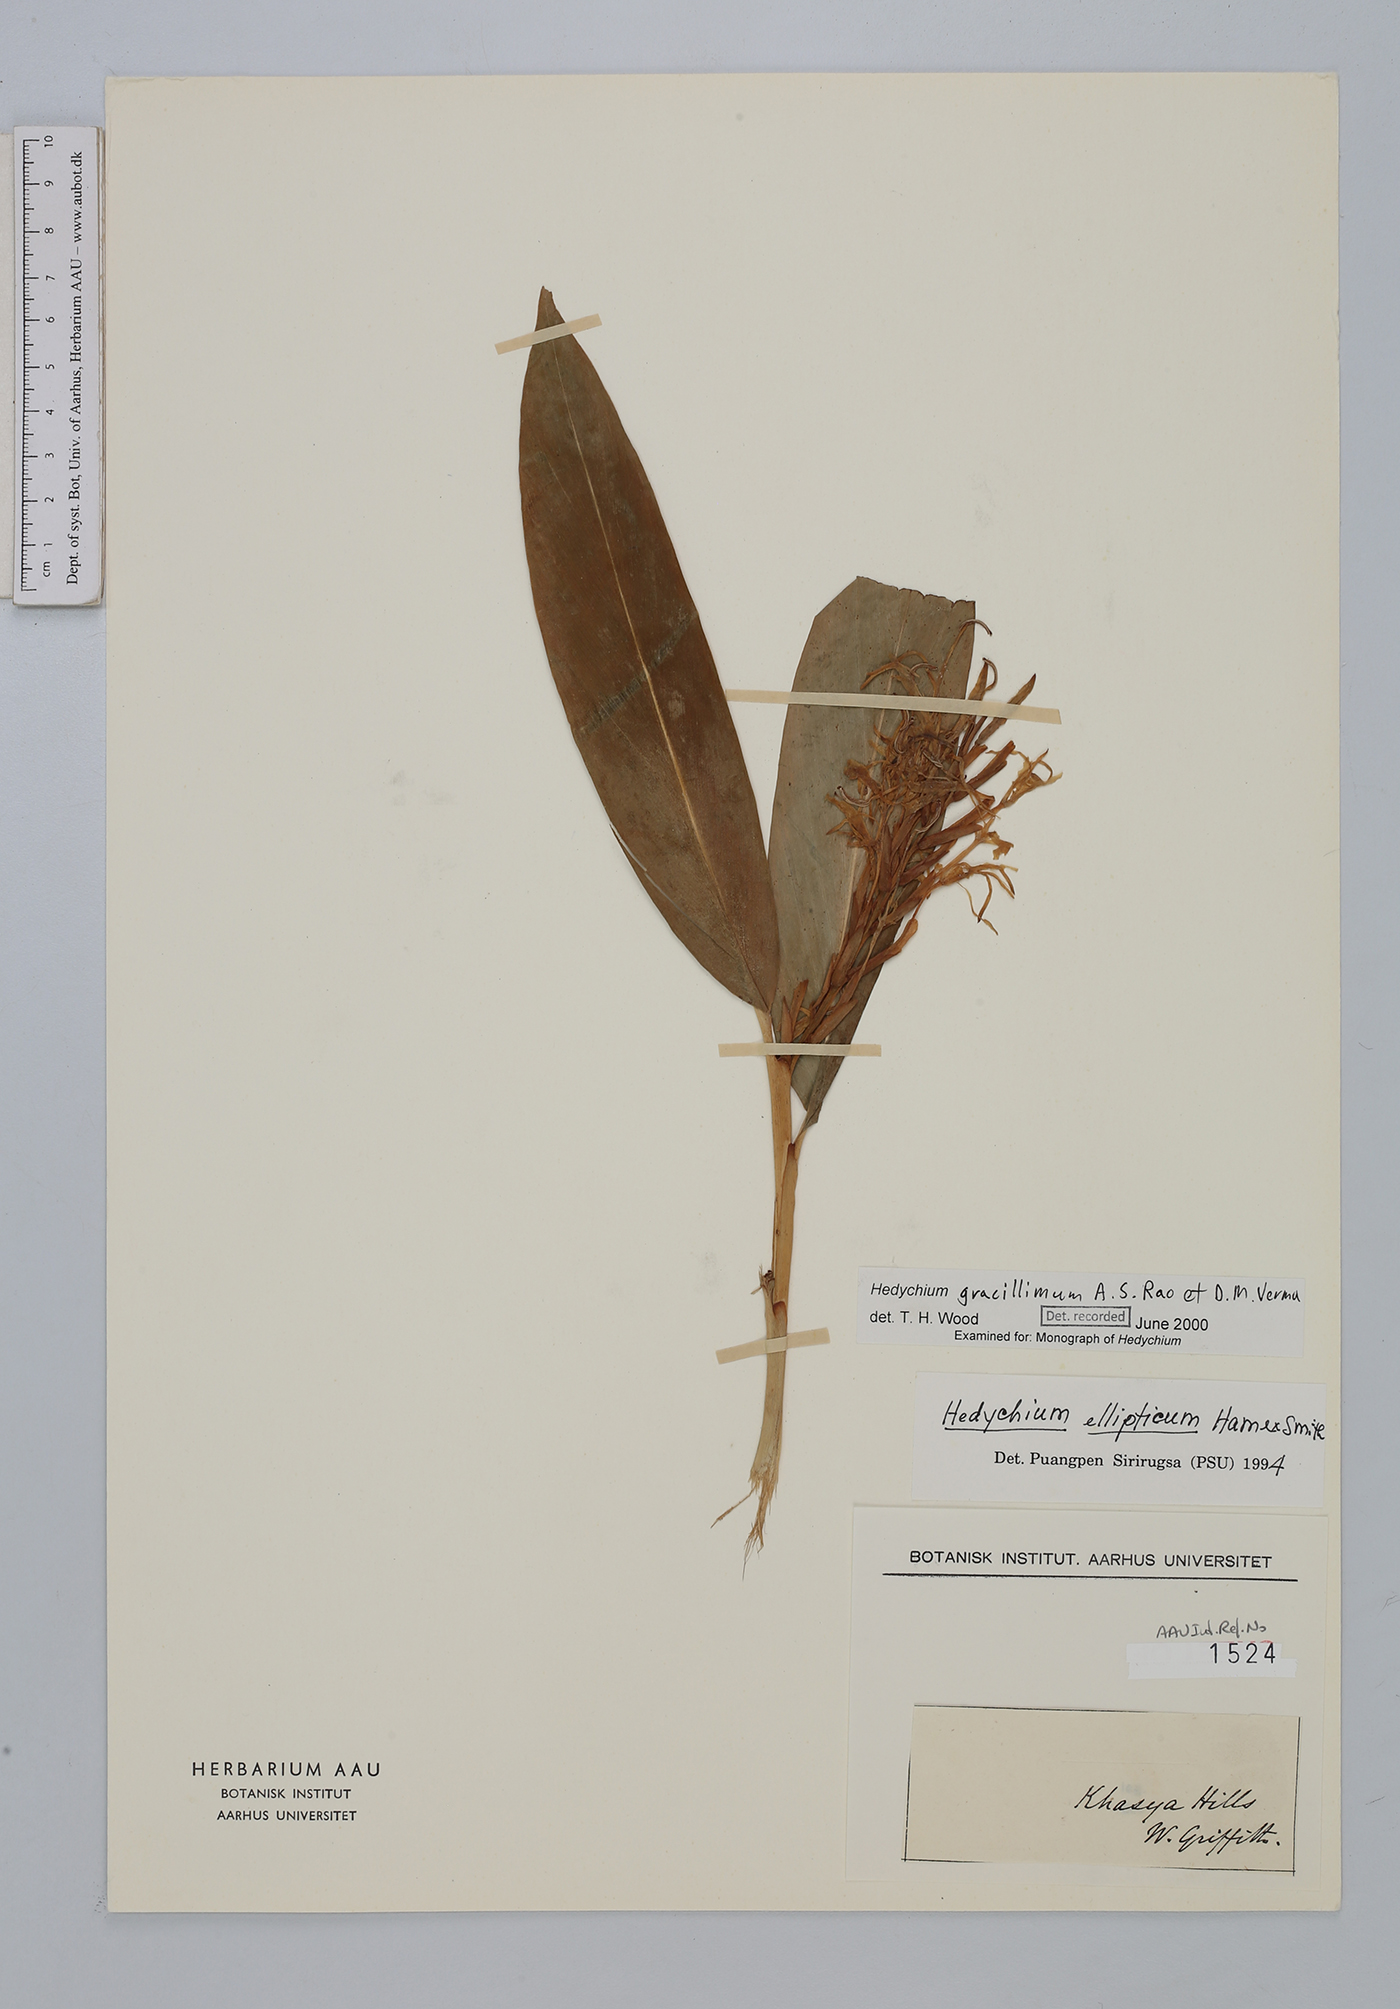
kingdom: Plantae
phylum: Tracheophyta
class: Liliopsida
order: Zingiberales
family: Zingiberaceae
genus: Hedychium
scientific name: Hedychium gracillimum
